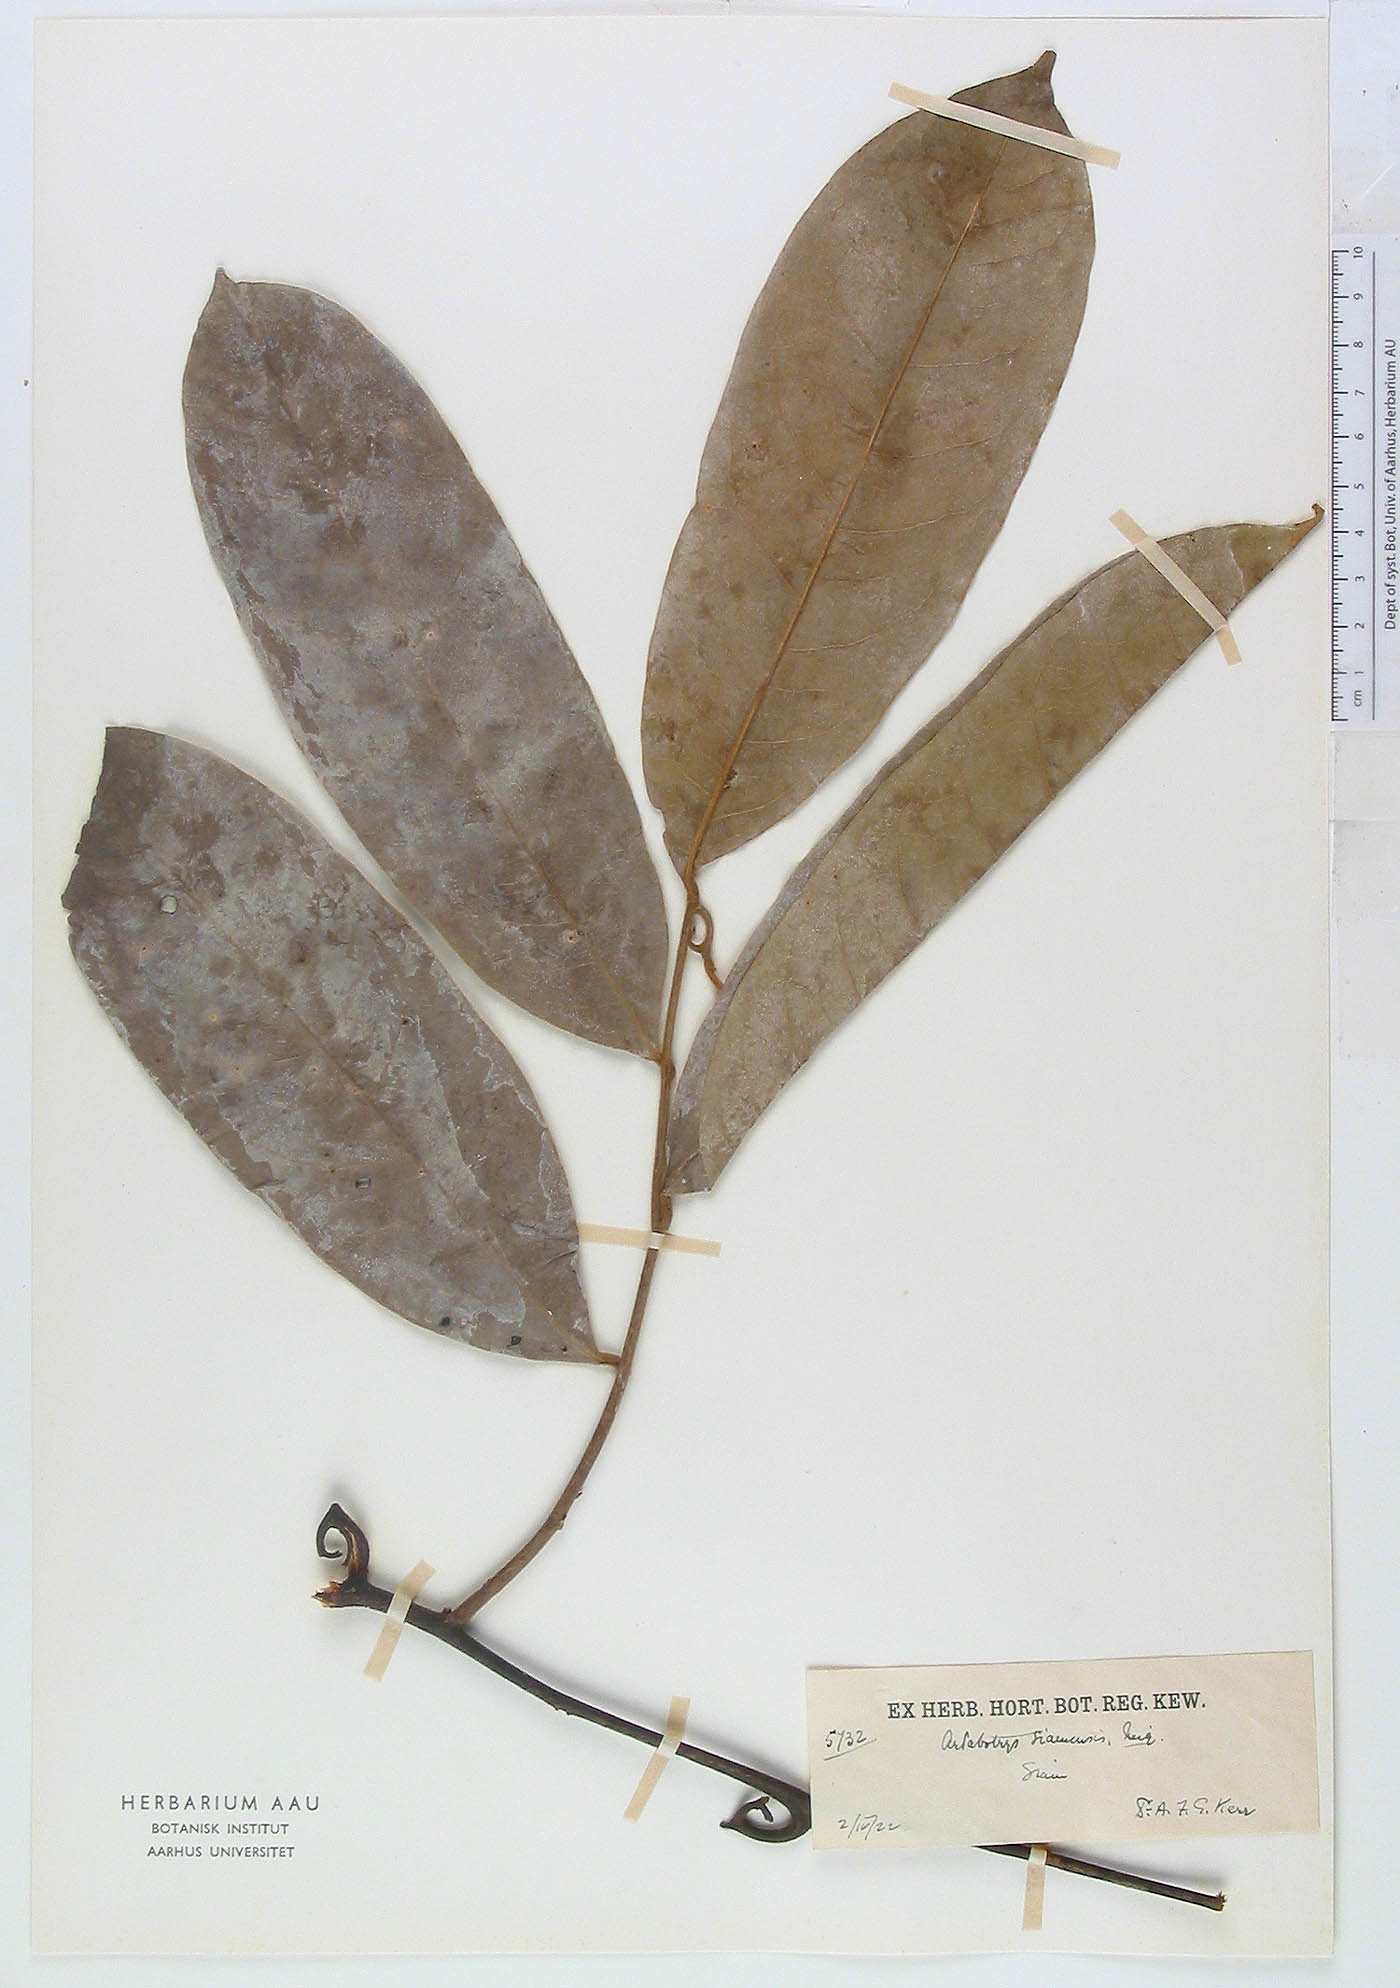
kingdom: Plantae
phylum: Tracheophyta
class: Magnoliopsida
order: Magnoliales
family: Annonaceae
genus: Artabotrys
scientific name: Artabotrys siamensis
